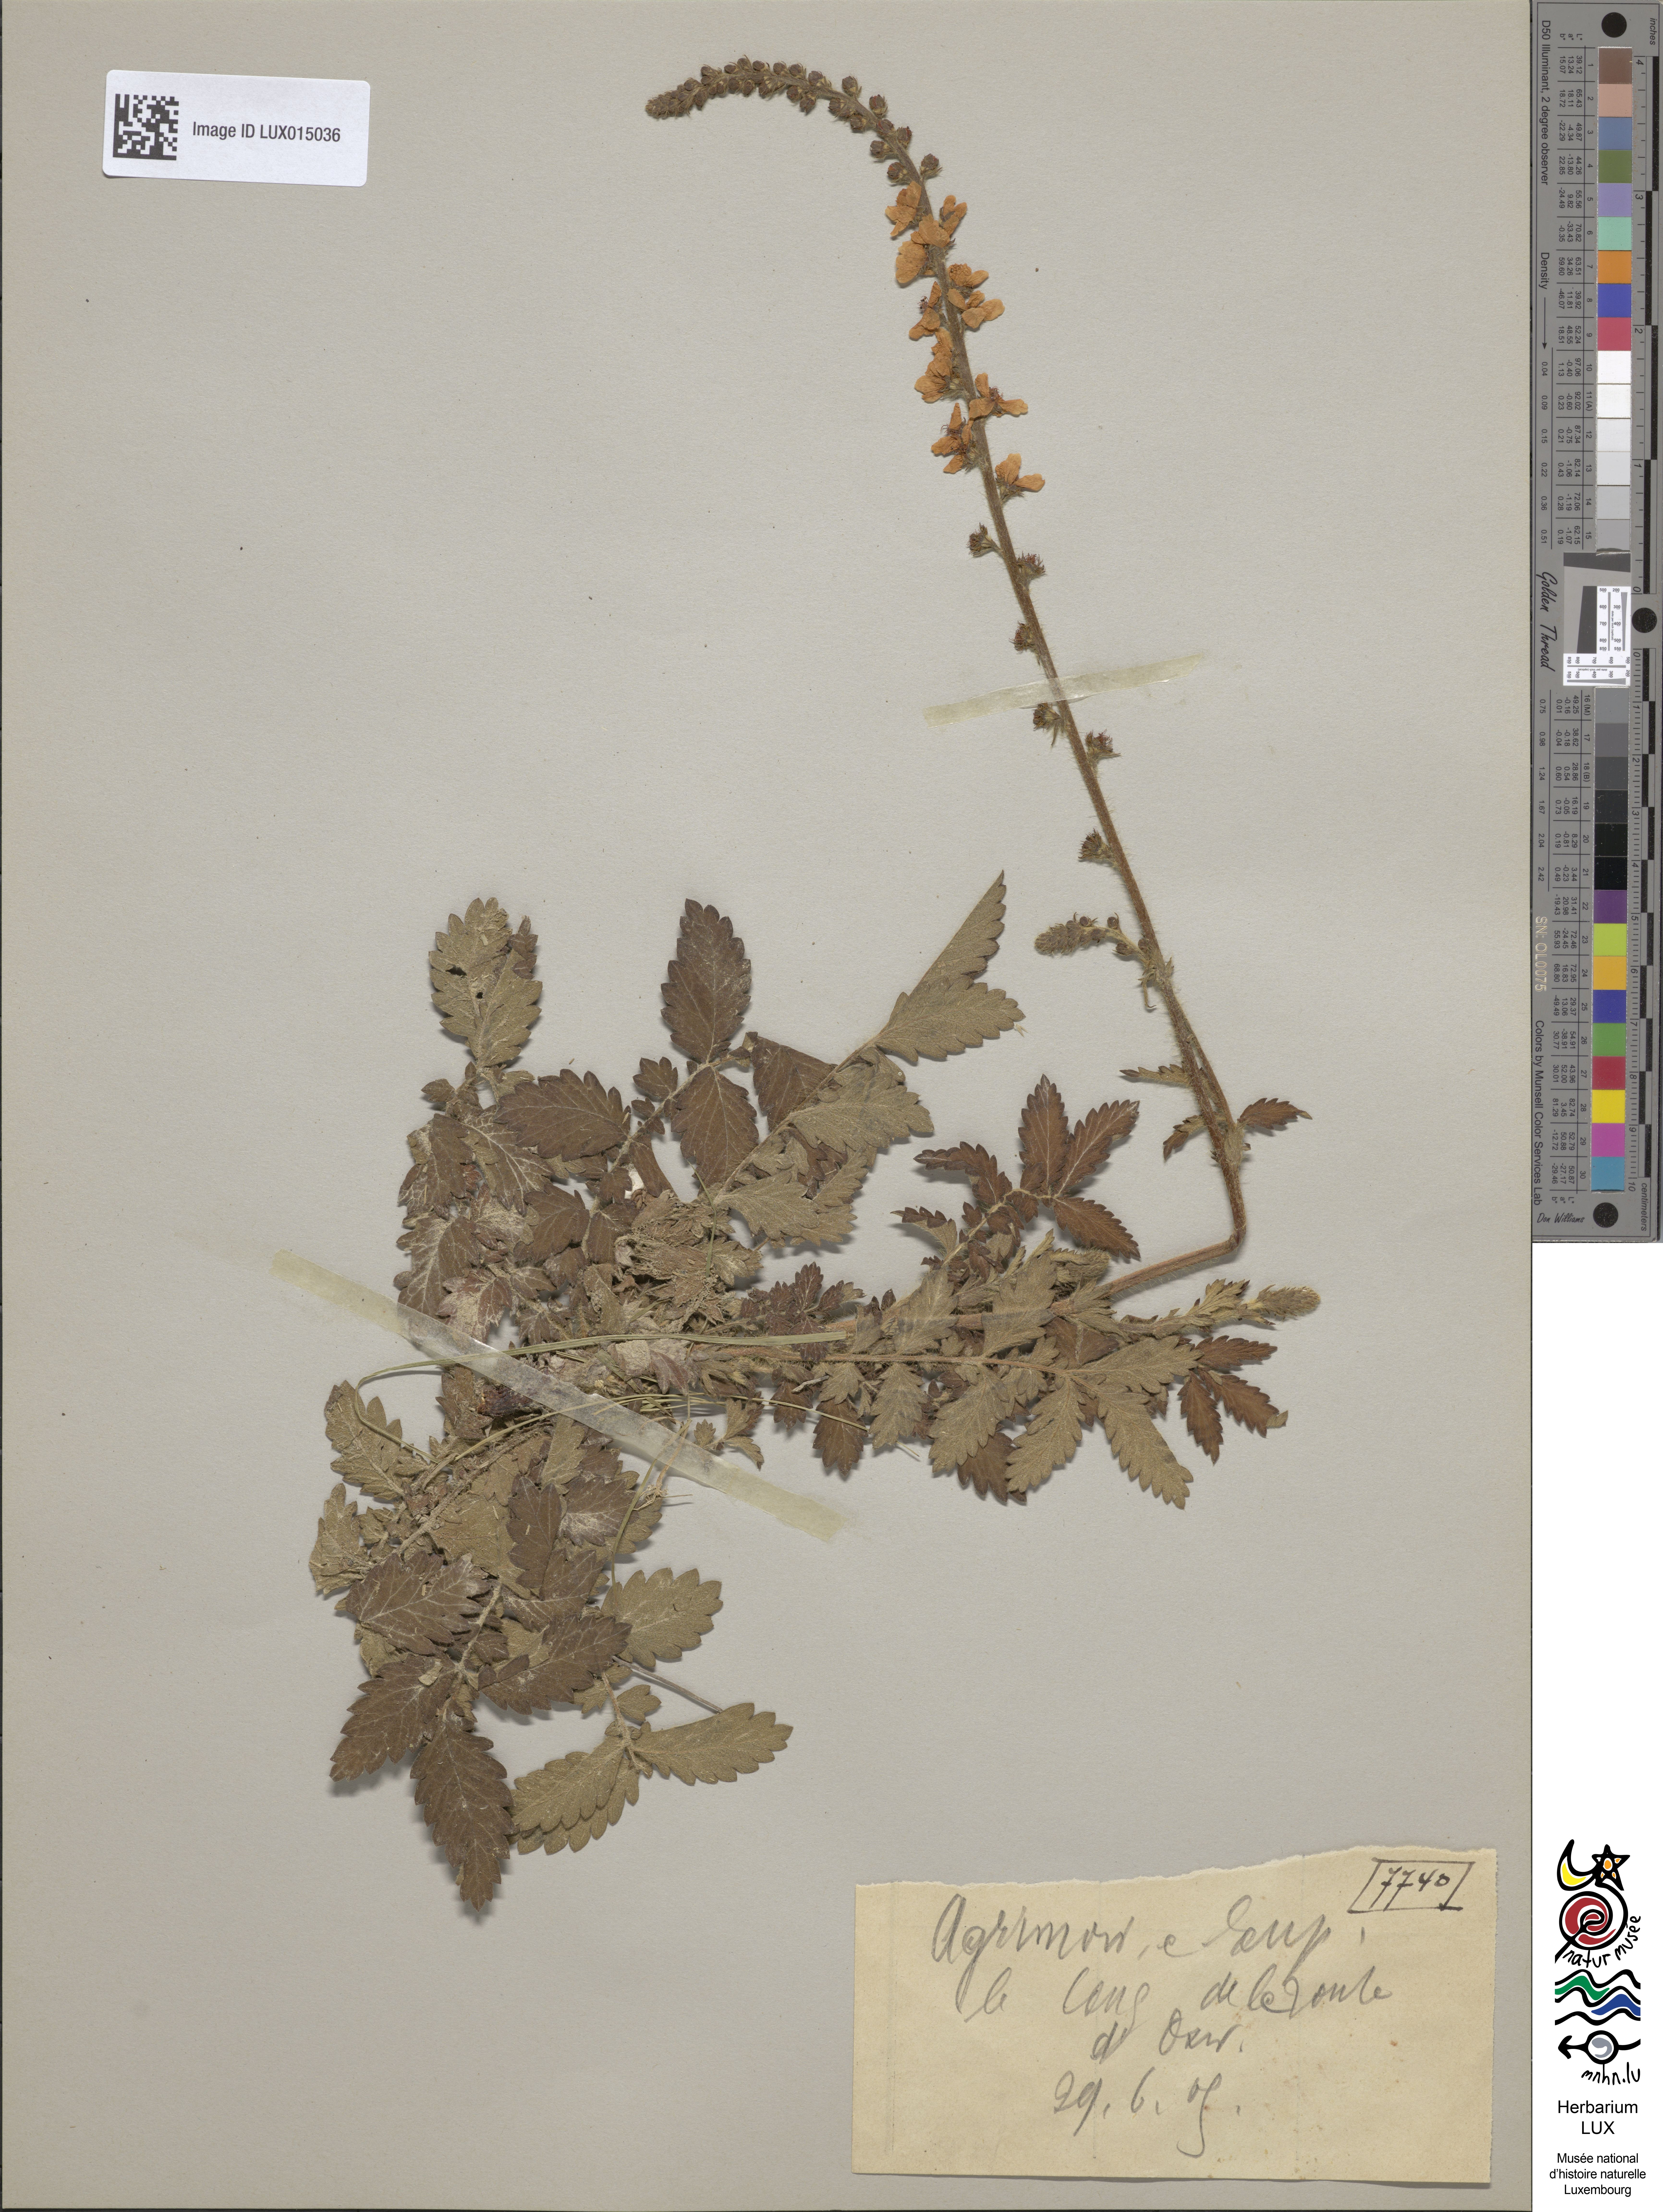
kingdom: Plantae
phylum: Tracheophyta
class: Magnoliopsida
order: Rosales
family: Rosaceae
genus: Agrimonia
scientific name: Agrimonia eupatoria
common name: Agrimony
